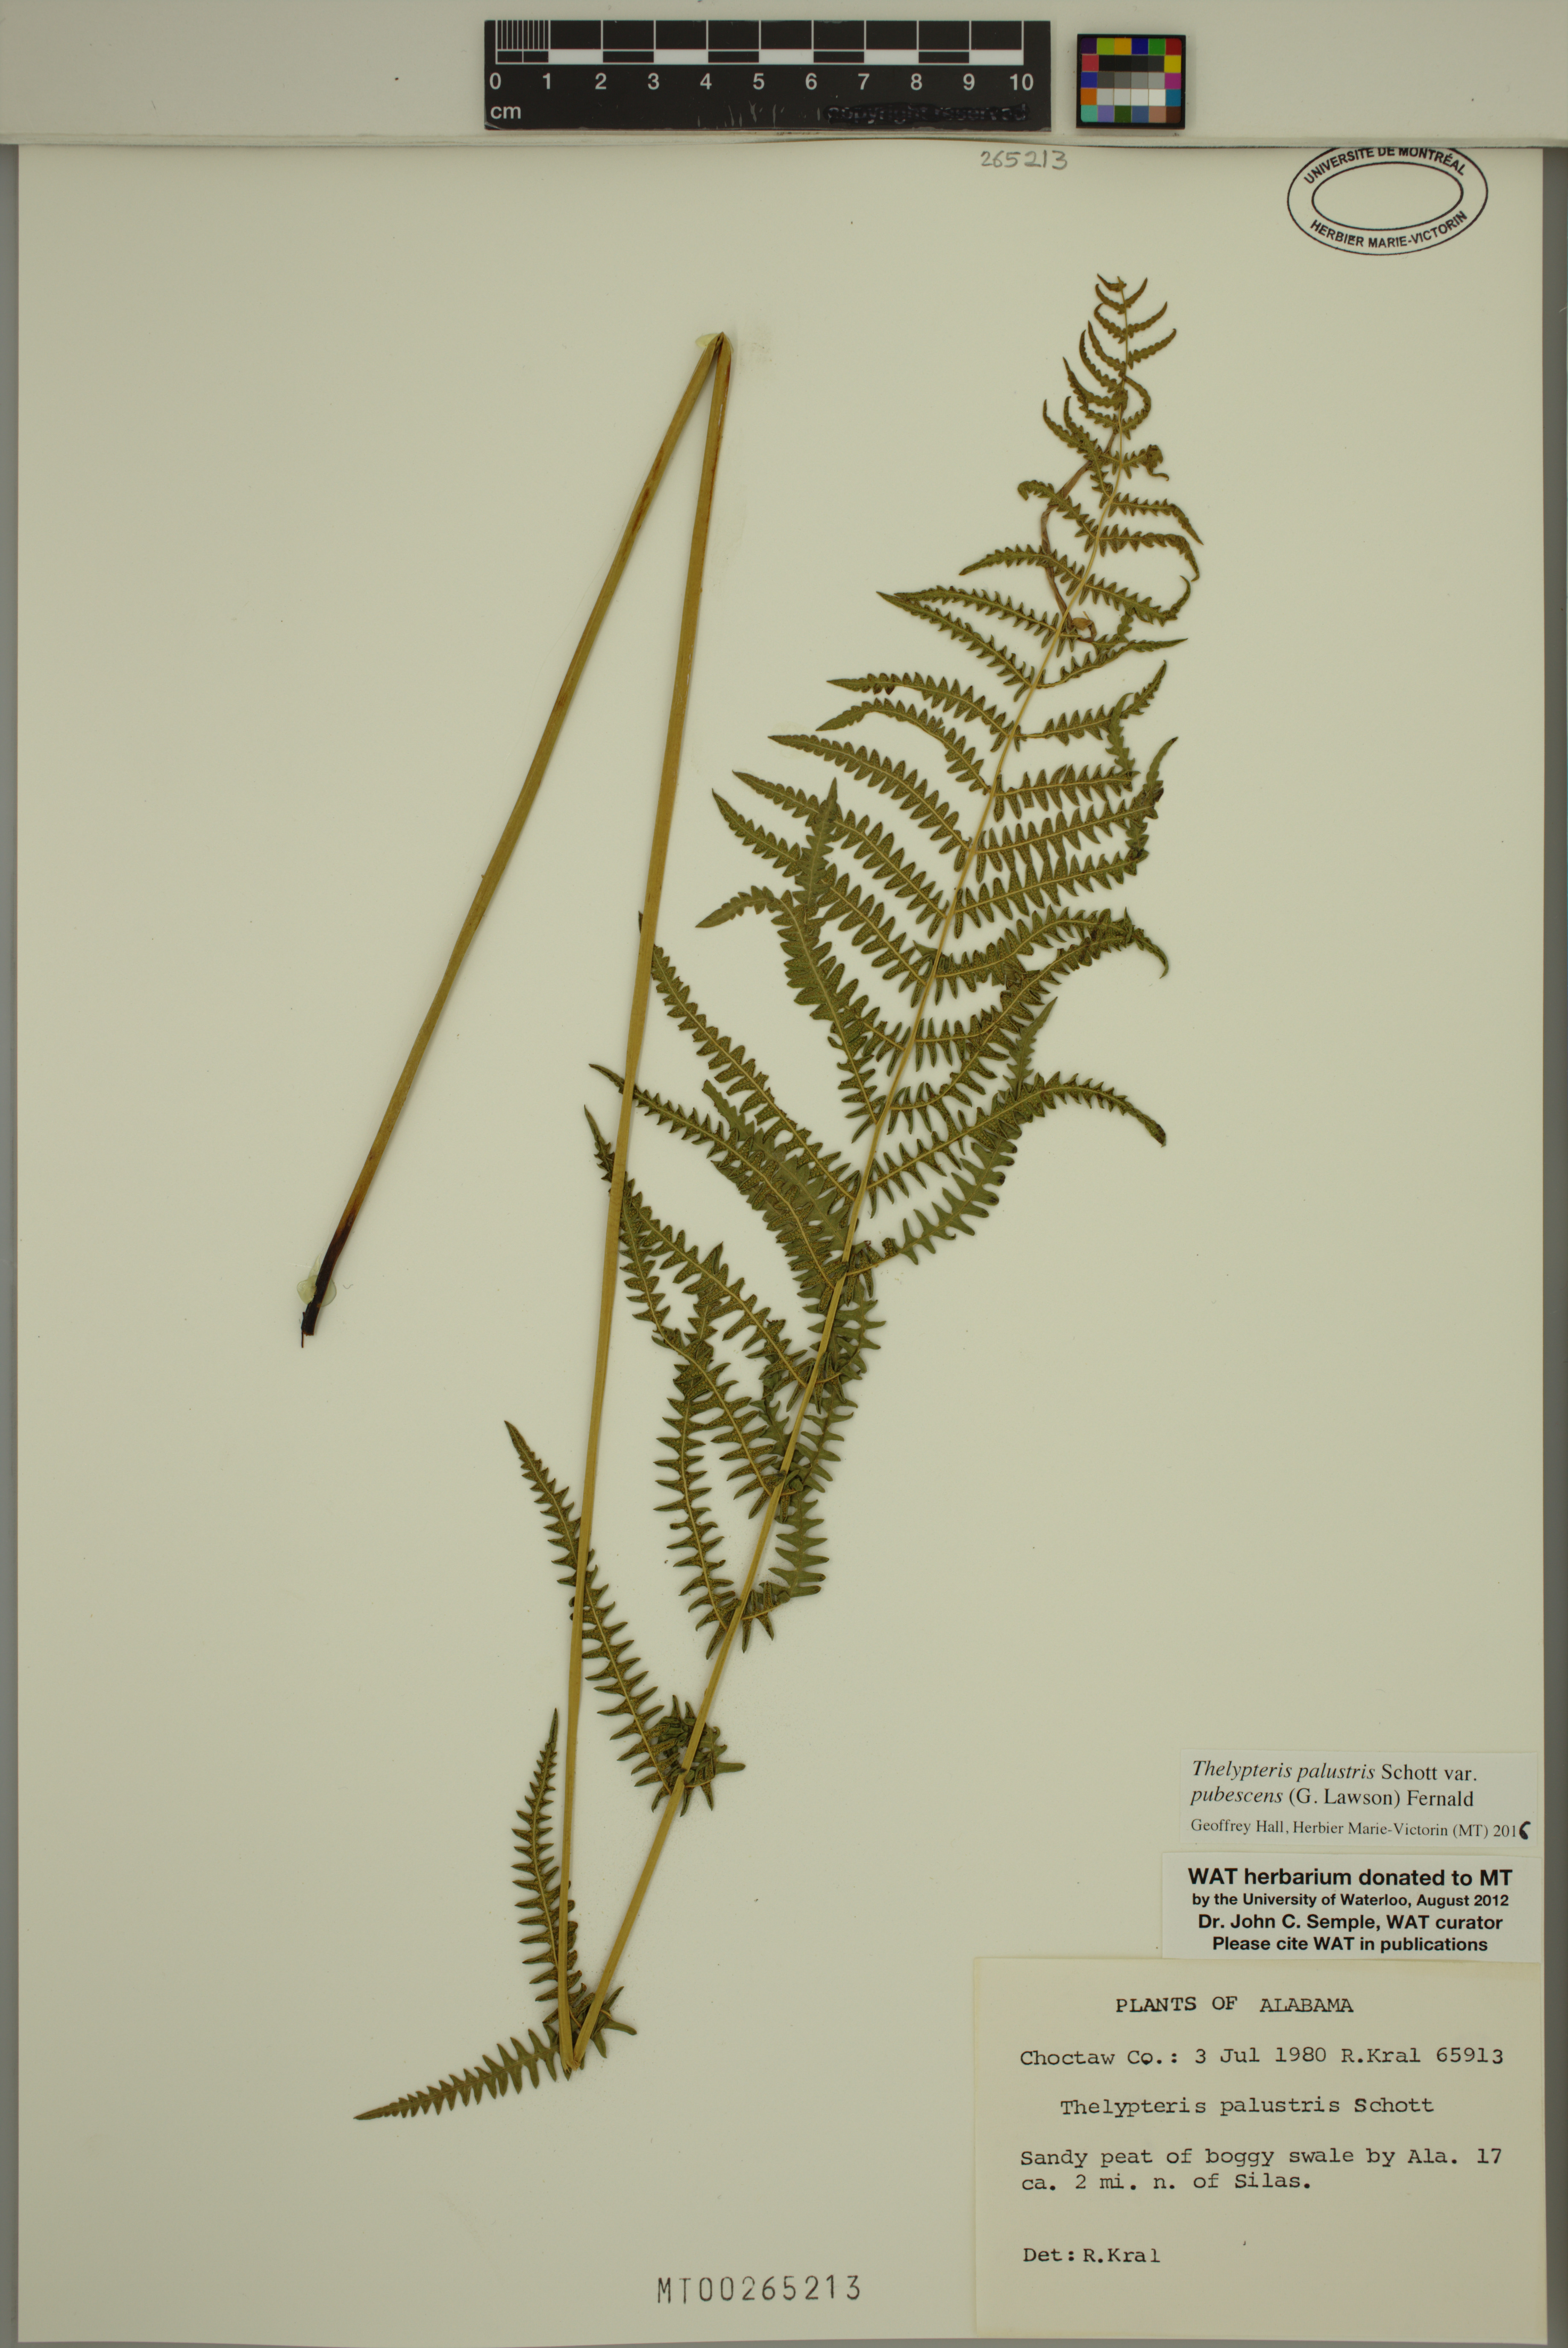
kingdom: Plantae
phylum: Tracheophyta
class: Polypodiopsida
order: Polypodiales
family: Thelypteridaceae
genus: Thelypteris
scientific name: Thelypteris palustris
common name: Marsh fern
